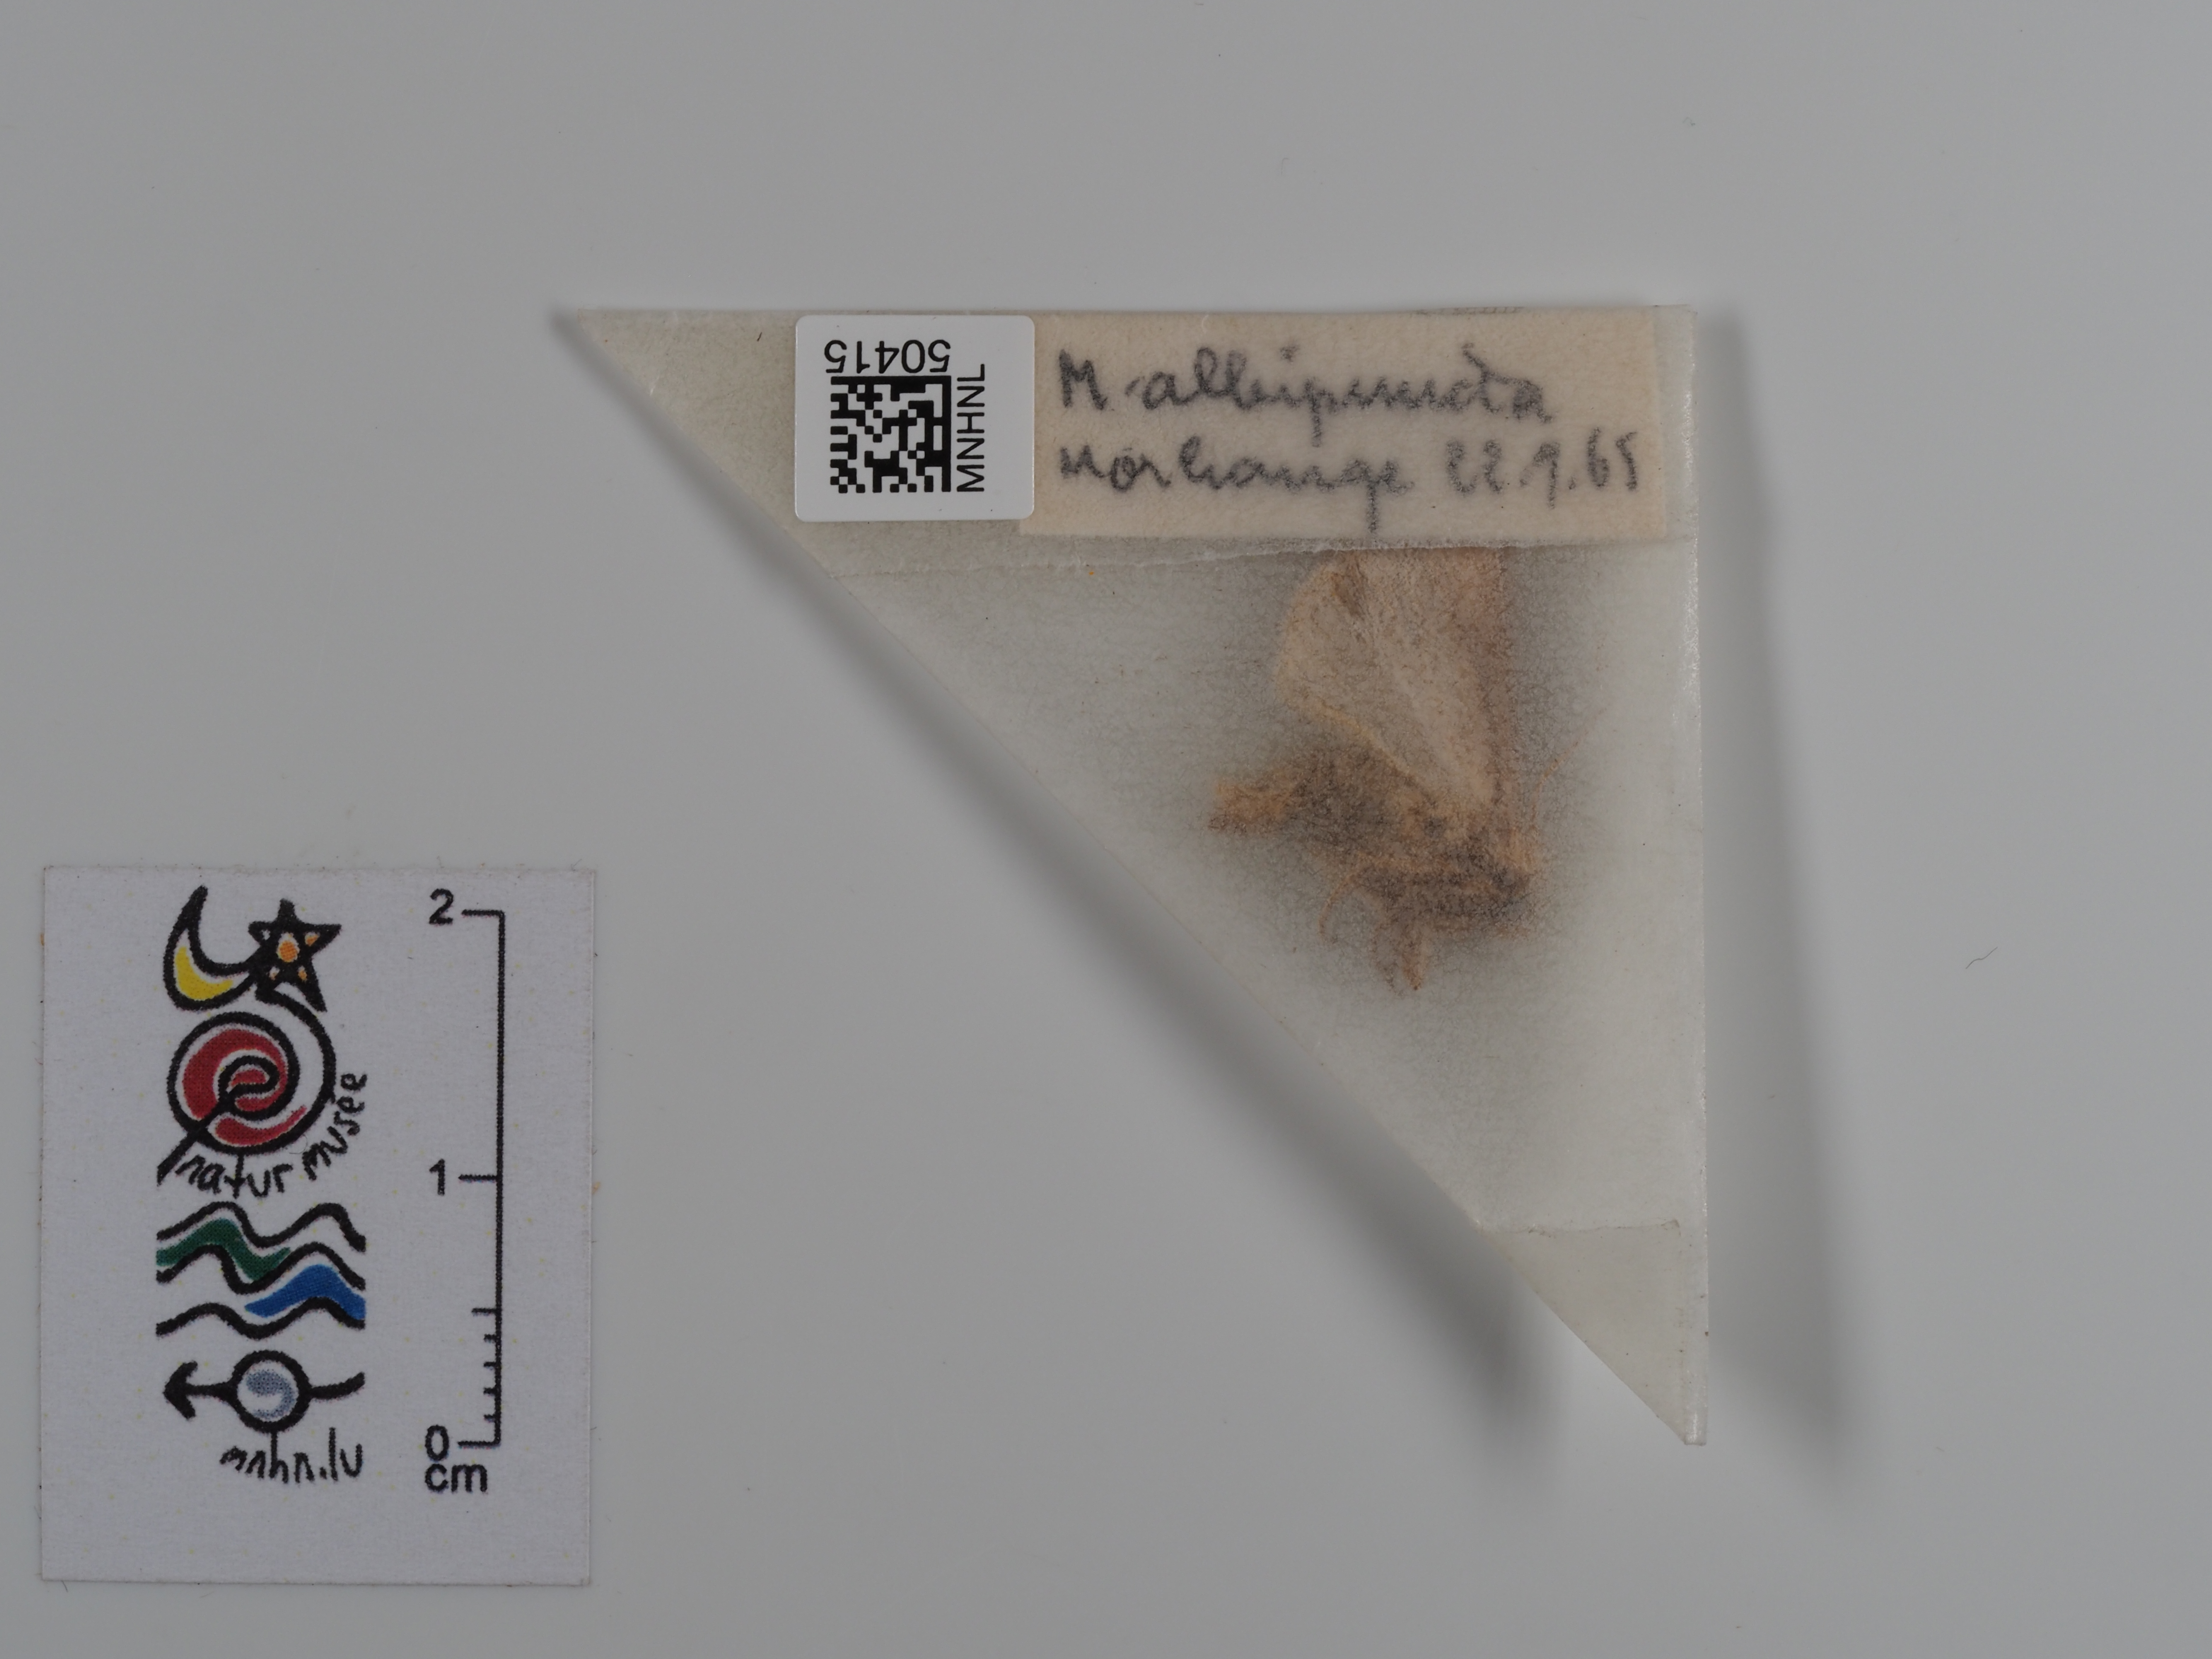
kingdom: Animalia
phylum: Arthropoda
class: Insecta
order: Lepidoptera
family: Noctuidae
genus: Mythimna
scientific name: Mythimna albipuncta
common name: White-point
